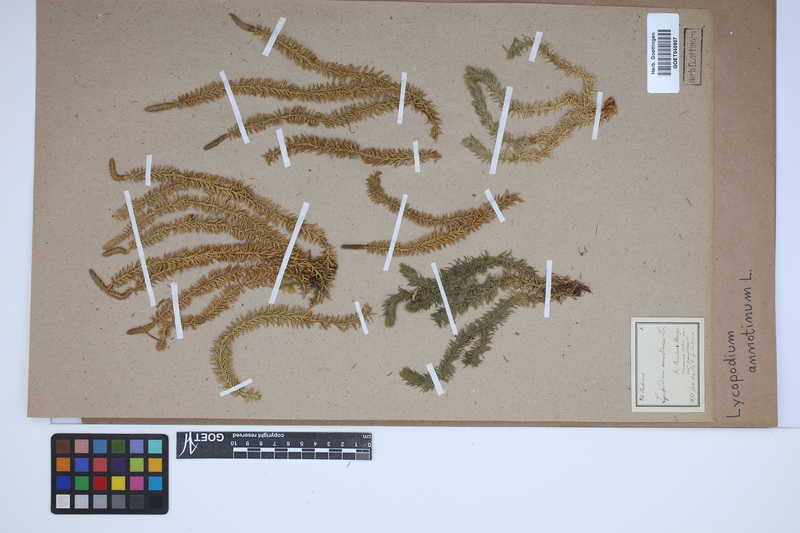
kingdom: Plantae
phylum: Tracheophyta
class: Lycopodiopsida
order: Lycopodiales
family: Lycopodiaceae
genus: Spinulum
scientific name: Spinulum annotinum
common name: Interrupted club-moss
